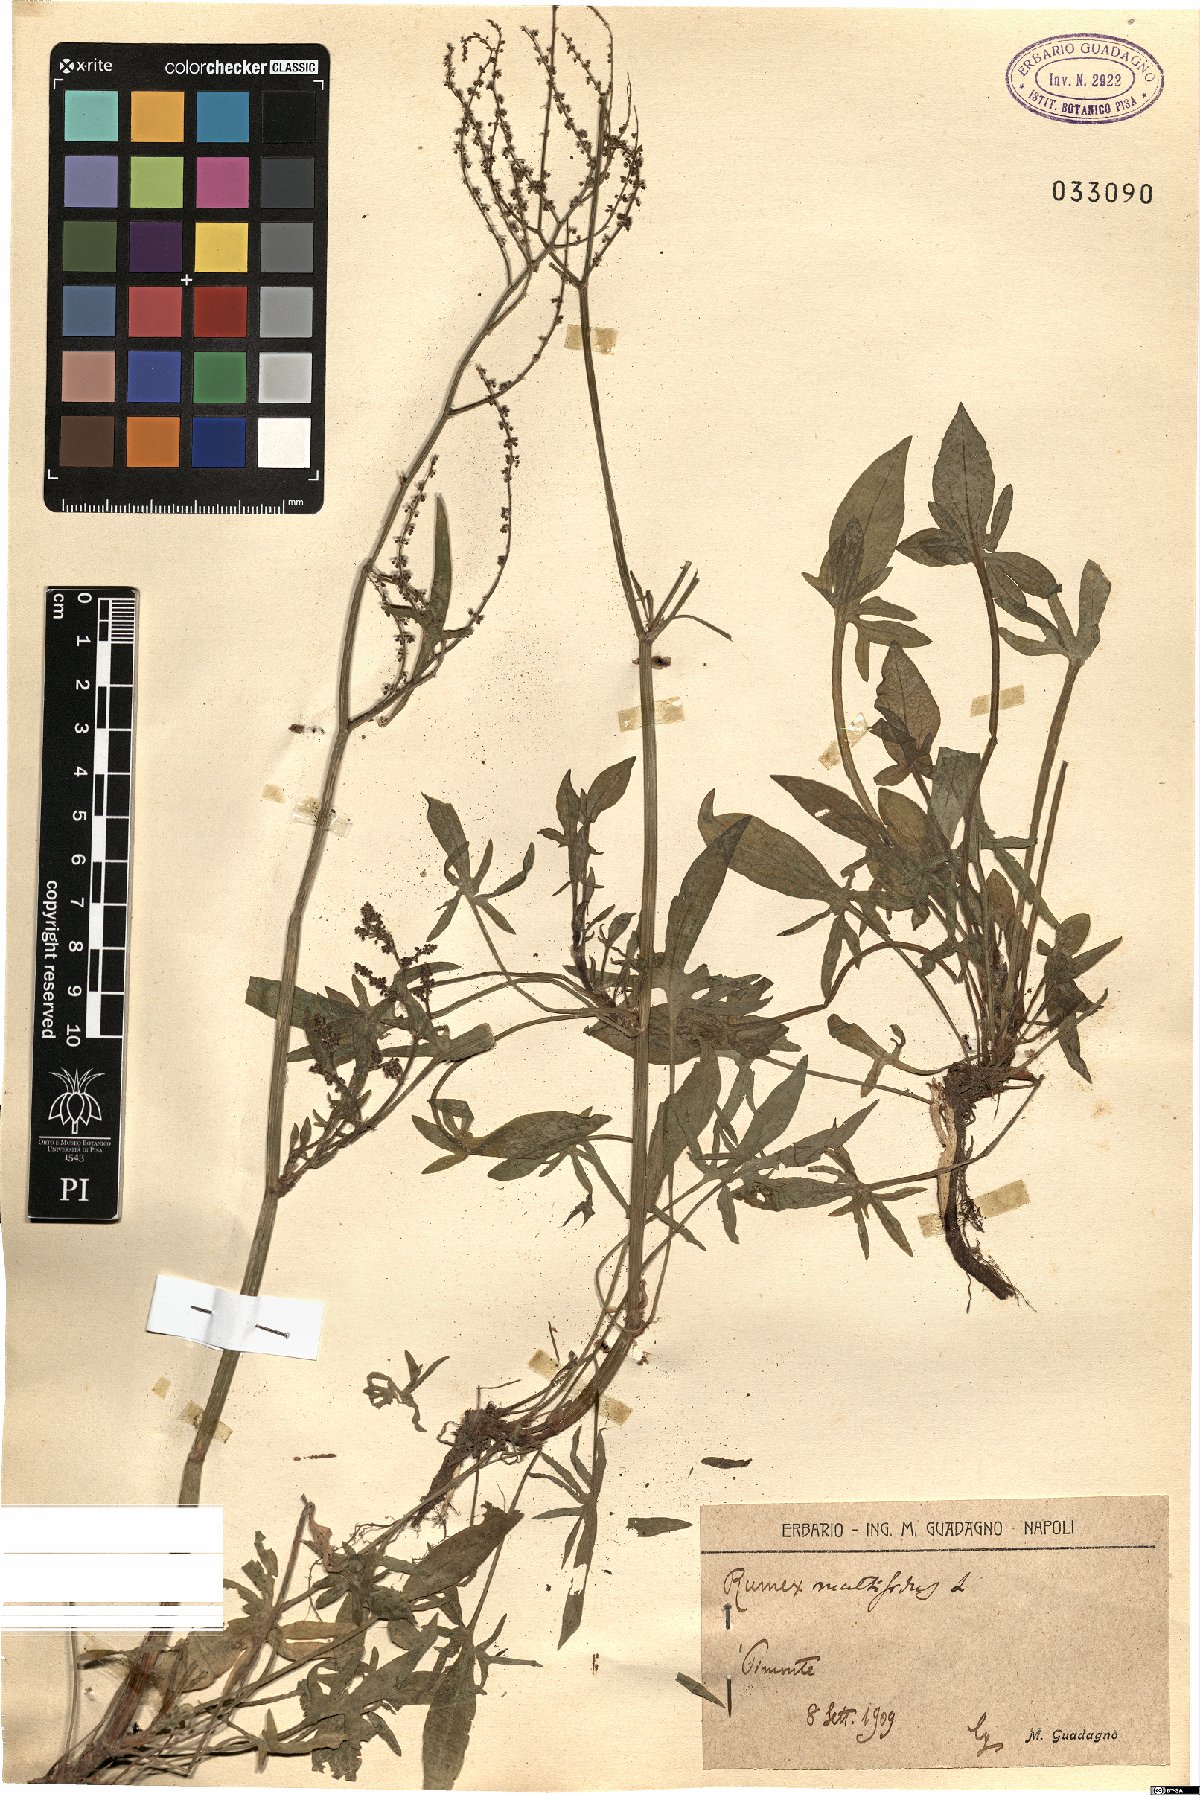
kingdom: Plantae
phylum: Tracheophyta
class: Magnoliopsida
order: Caryophyllales
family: Polygonaceae
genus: Rumex
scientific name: Rumex acetosella
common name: Common sheep sorrel
